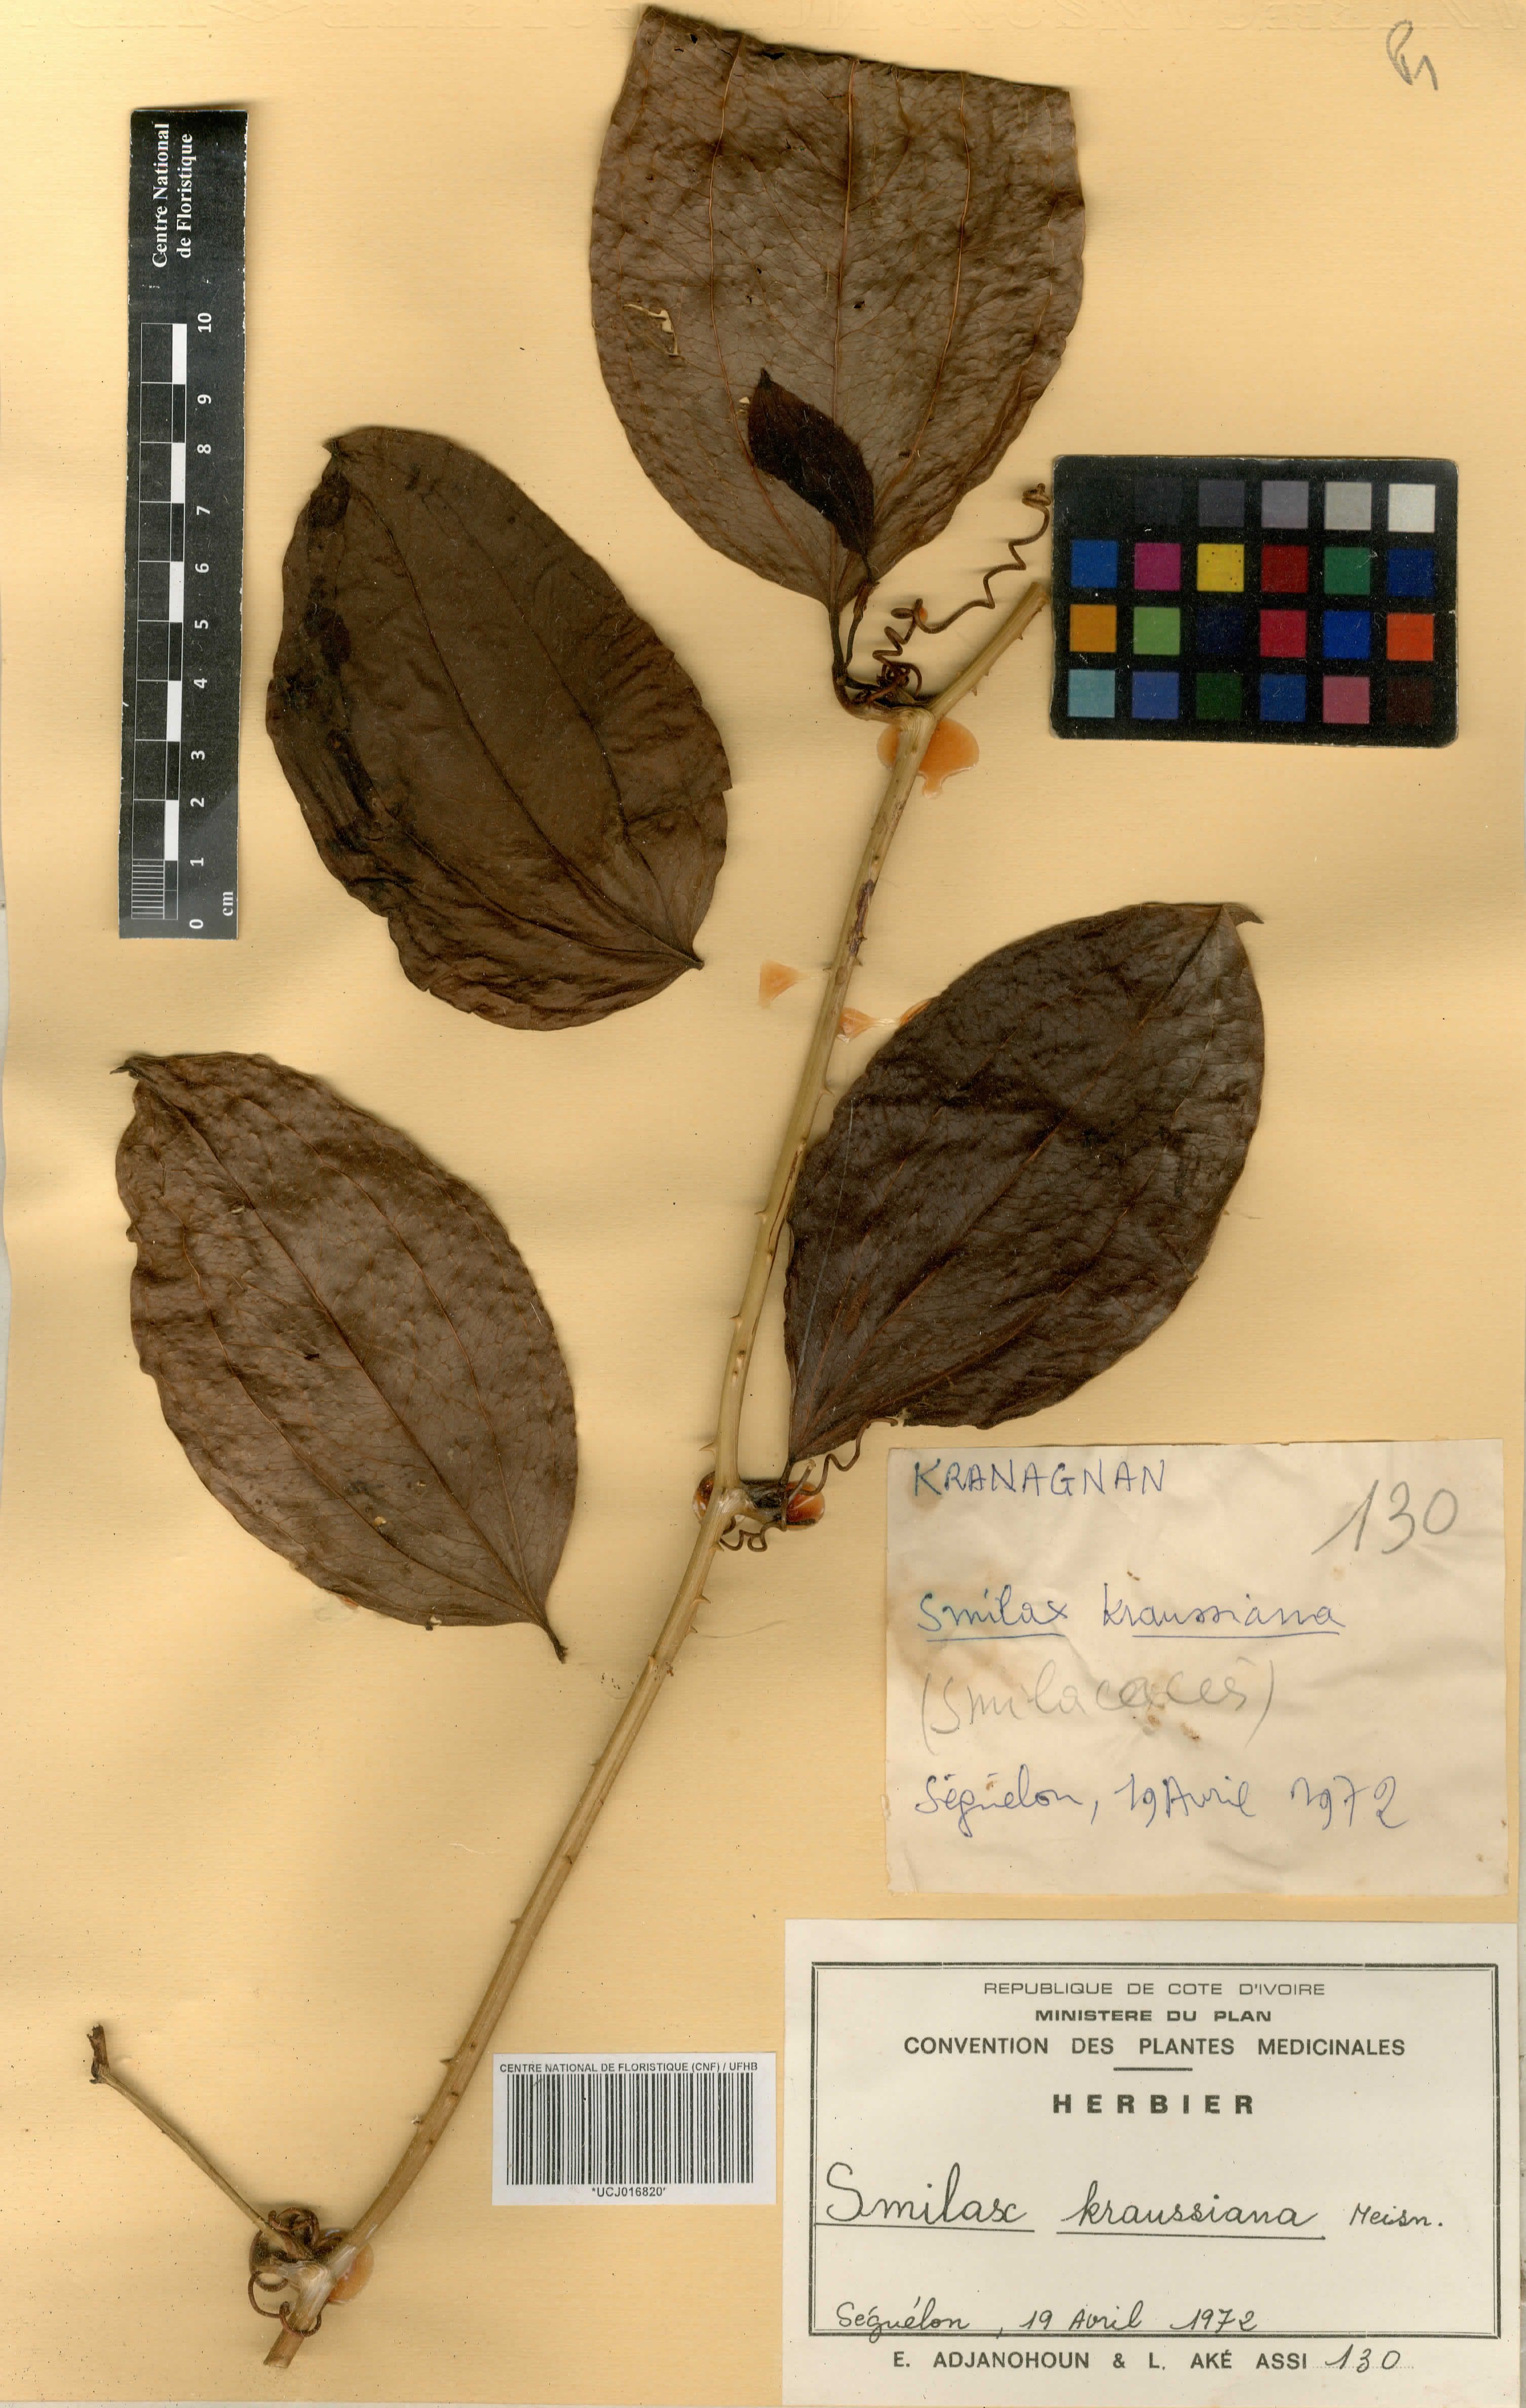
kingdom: Plantae
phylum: Tracheophyta
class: Liliopsida
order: Liliales
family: Smilacaceae
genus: Smilax
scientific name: Smilax anceps
